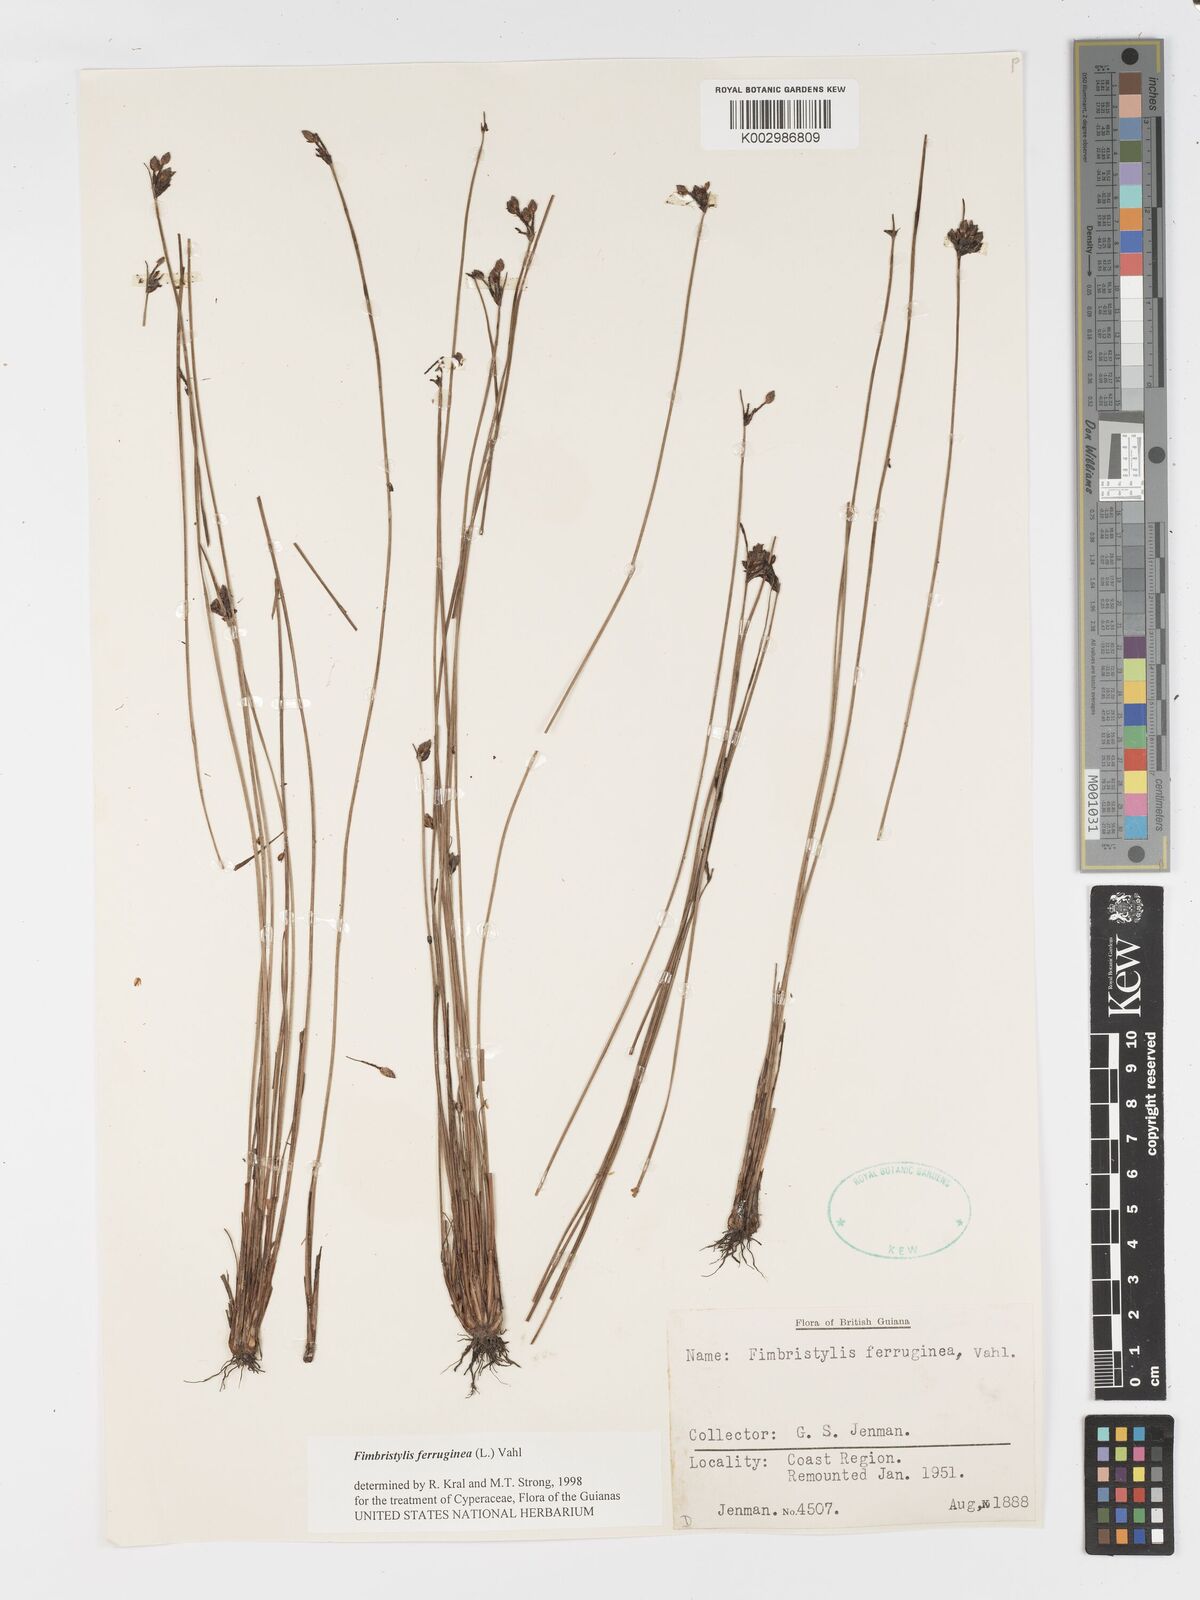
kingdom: Plantae
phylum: Tracheophyta
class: Liliopsida
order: Poales
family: Cyperaceae
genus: Fimbristylis
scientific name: Fimbristylis ferruginea
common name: West indian fimbry
